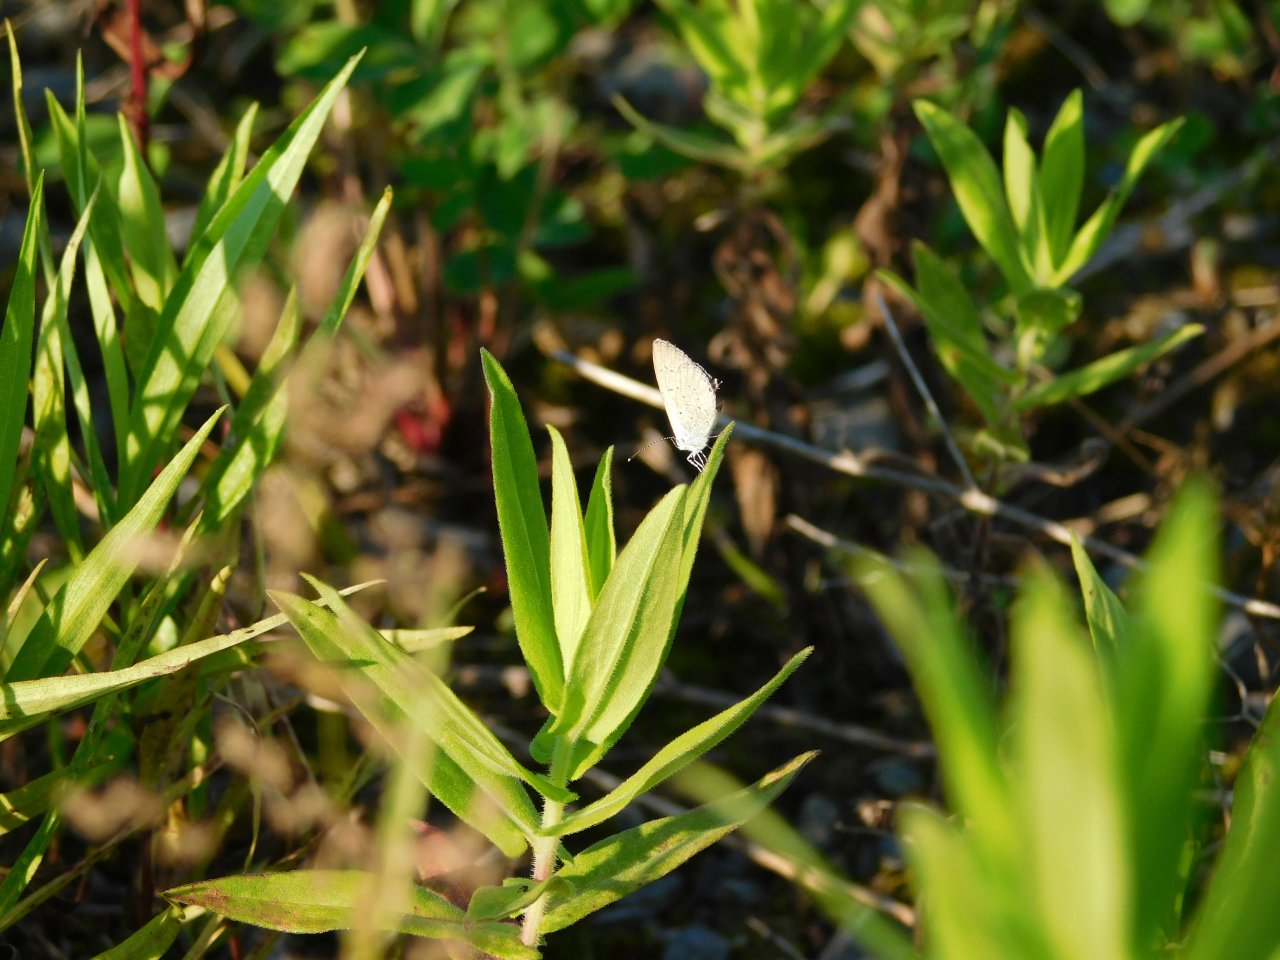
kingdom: Animalia
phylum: Arthropoda
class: Insecta
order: Lepidoptera
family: Lycaenidae
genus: Elkalyce
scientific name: Elkalyce comyntas
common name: Eastern Tailed-Blue
